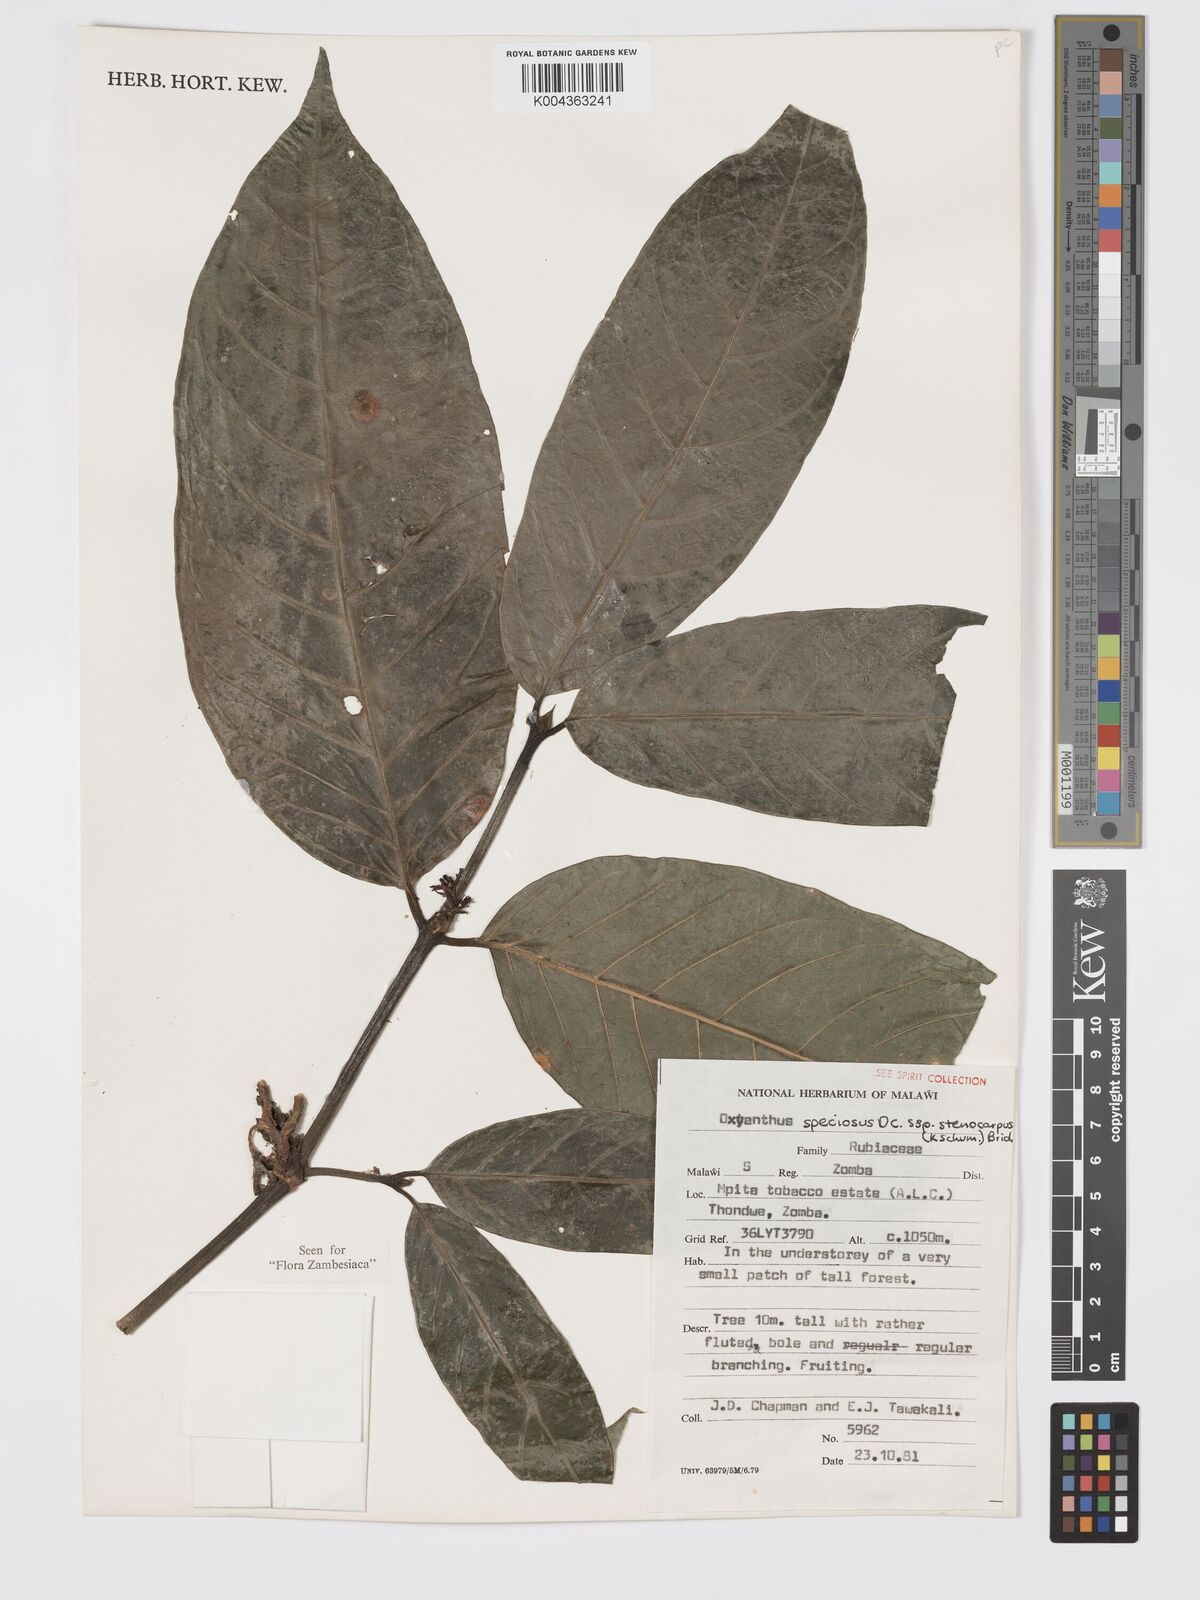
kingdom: Plantae
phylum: Tracheophyta
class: Magnoliopsida
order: Gentianales
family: Rubiaceae
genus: Oxyanthus
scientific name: Oxyanthus speciosus
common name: Whipstick loquat
